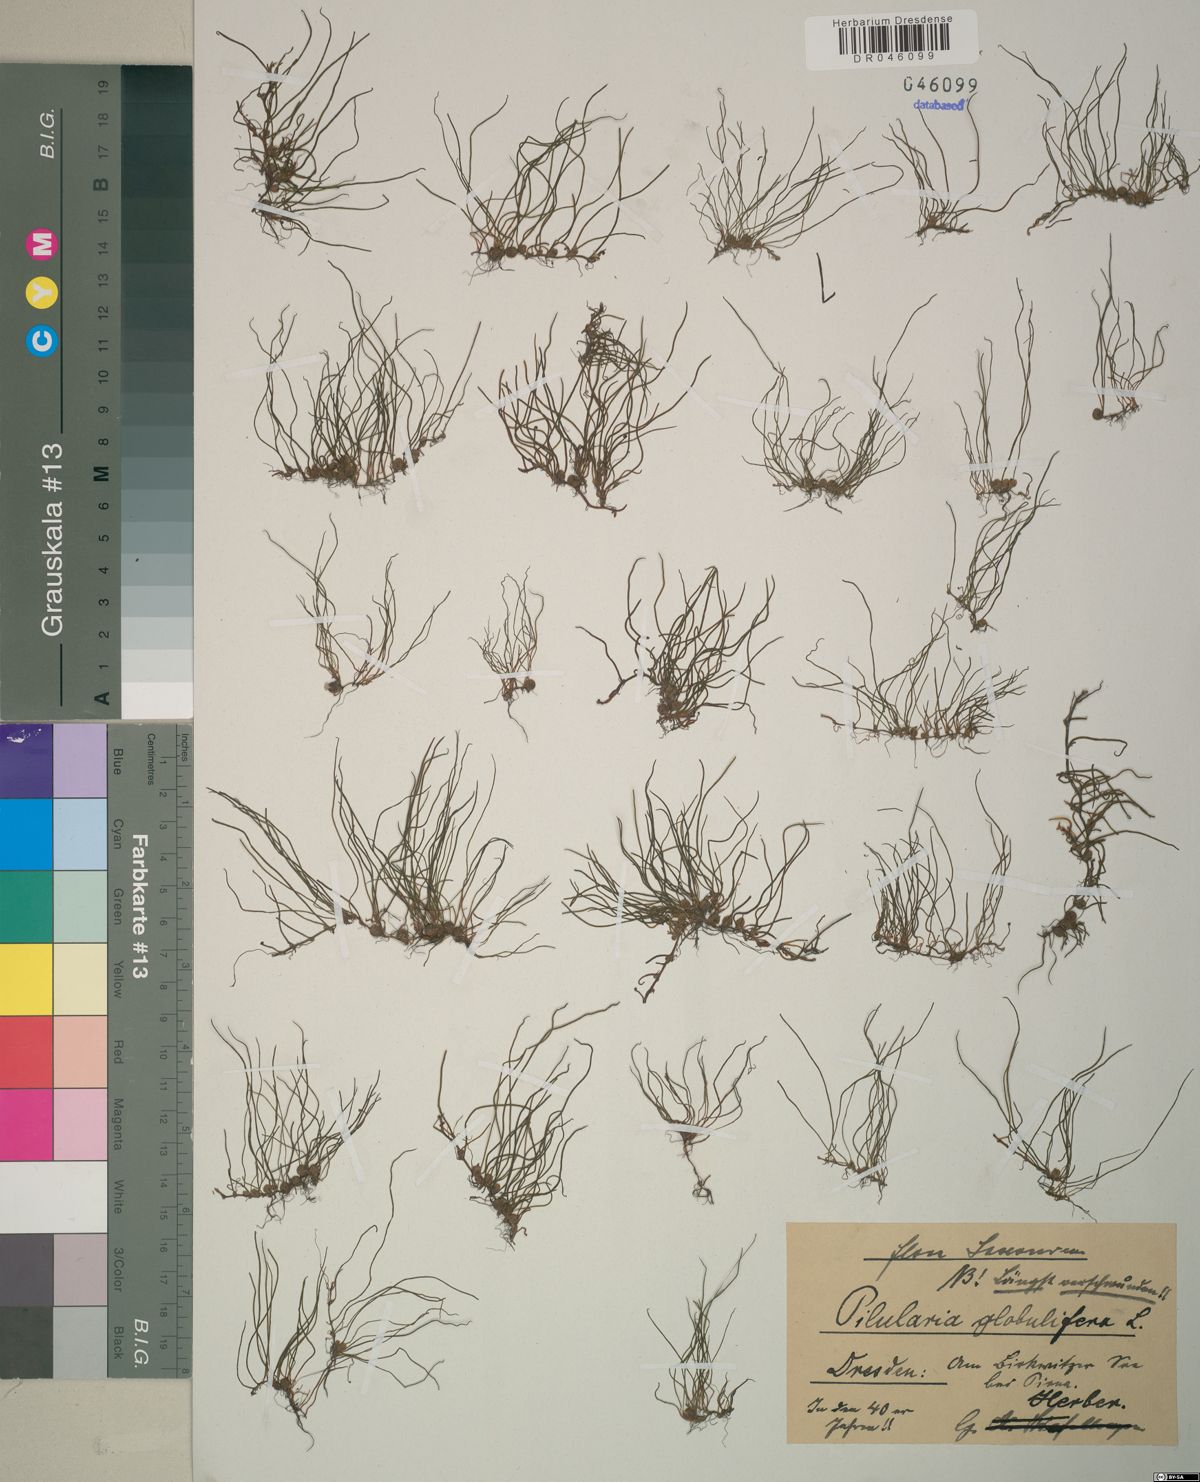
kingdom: Plantae
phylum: Tracheophyta
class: Polypodiopsida
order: Salviniales
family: Marsileaceae
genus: Pilularia
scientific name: Pilularia globulifera
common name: Pillwort
